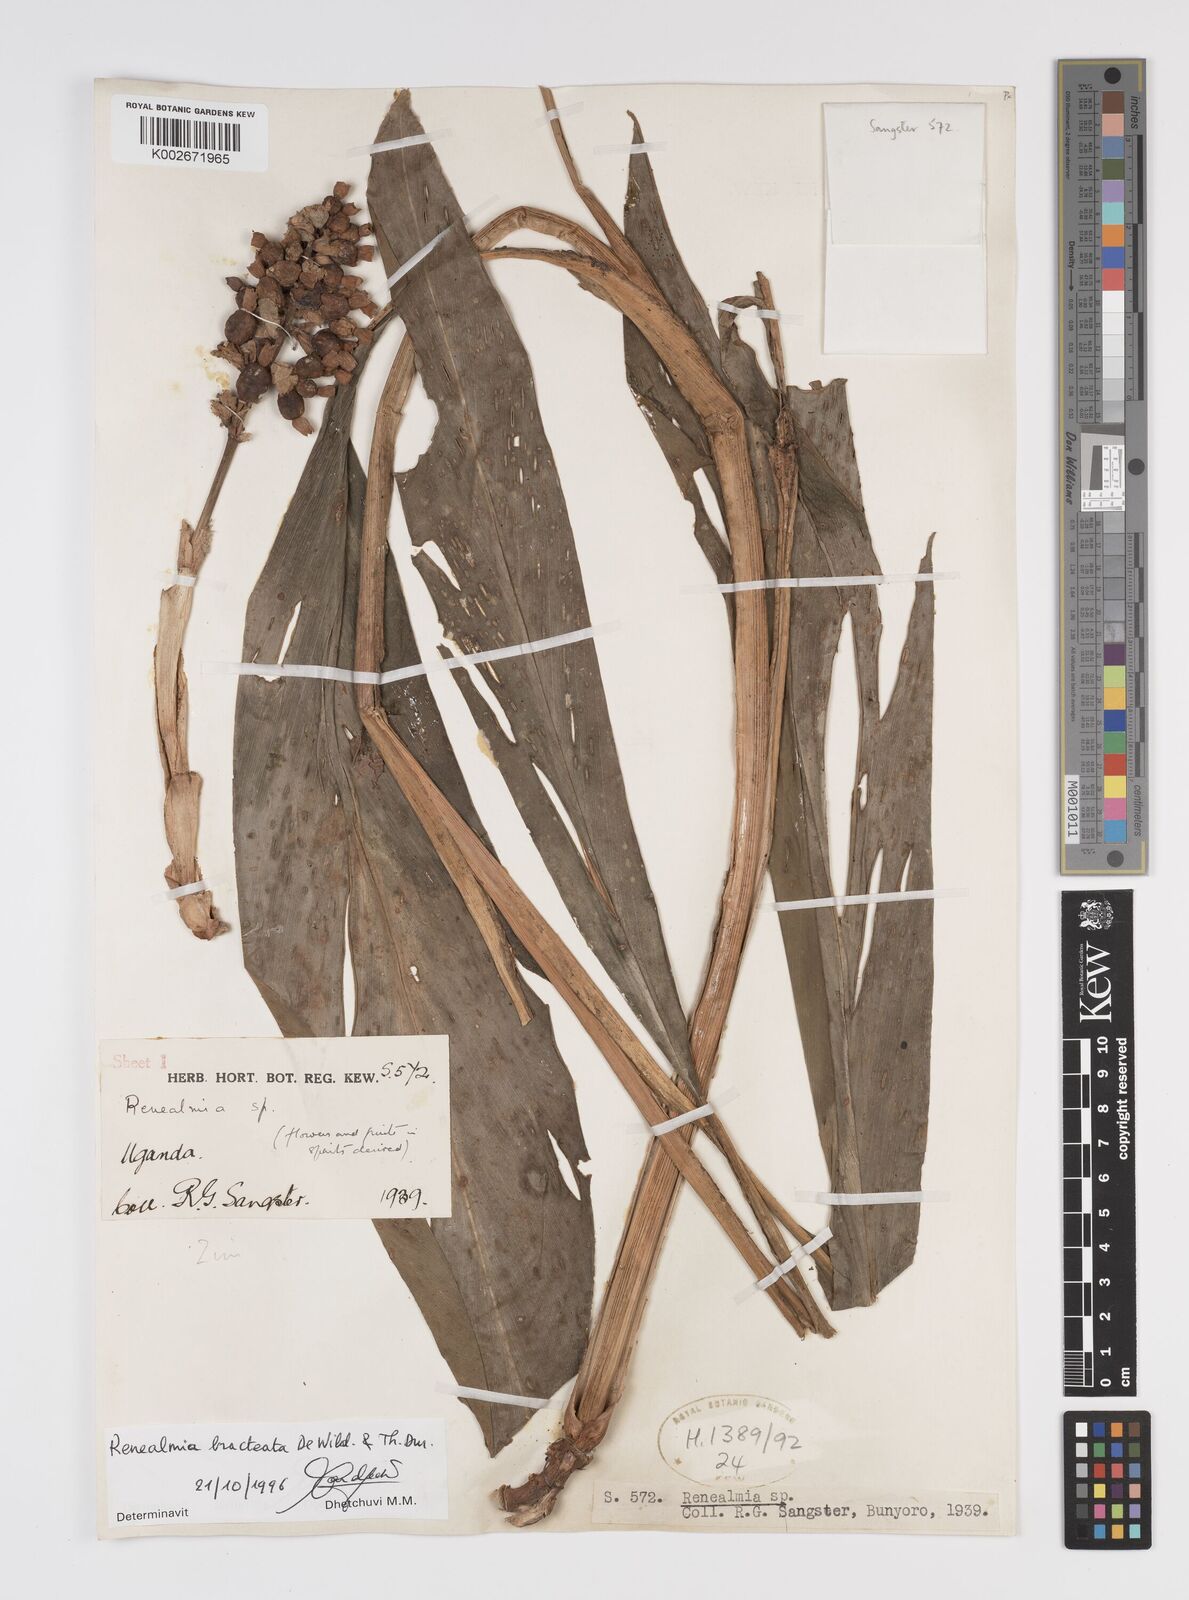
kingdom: Plantae
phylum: Tracheophyta
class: Liliopsida
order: Zingiberales
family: Zingiberaceae
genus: Renealmia
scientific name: Renealmia bracteata
